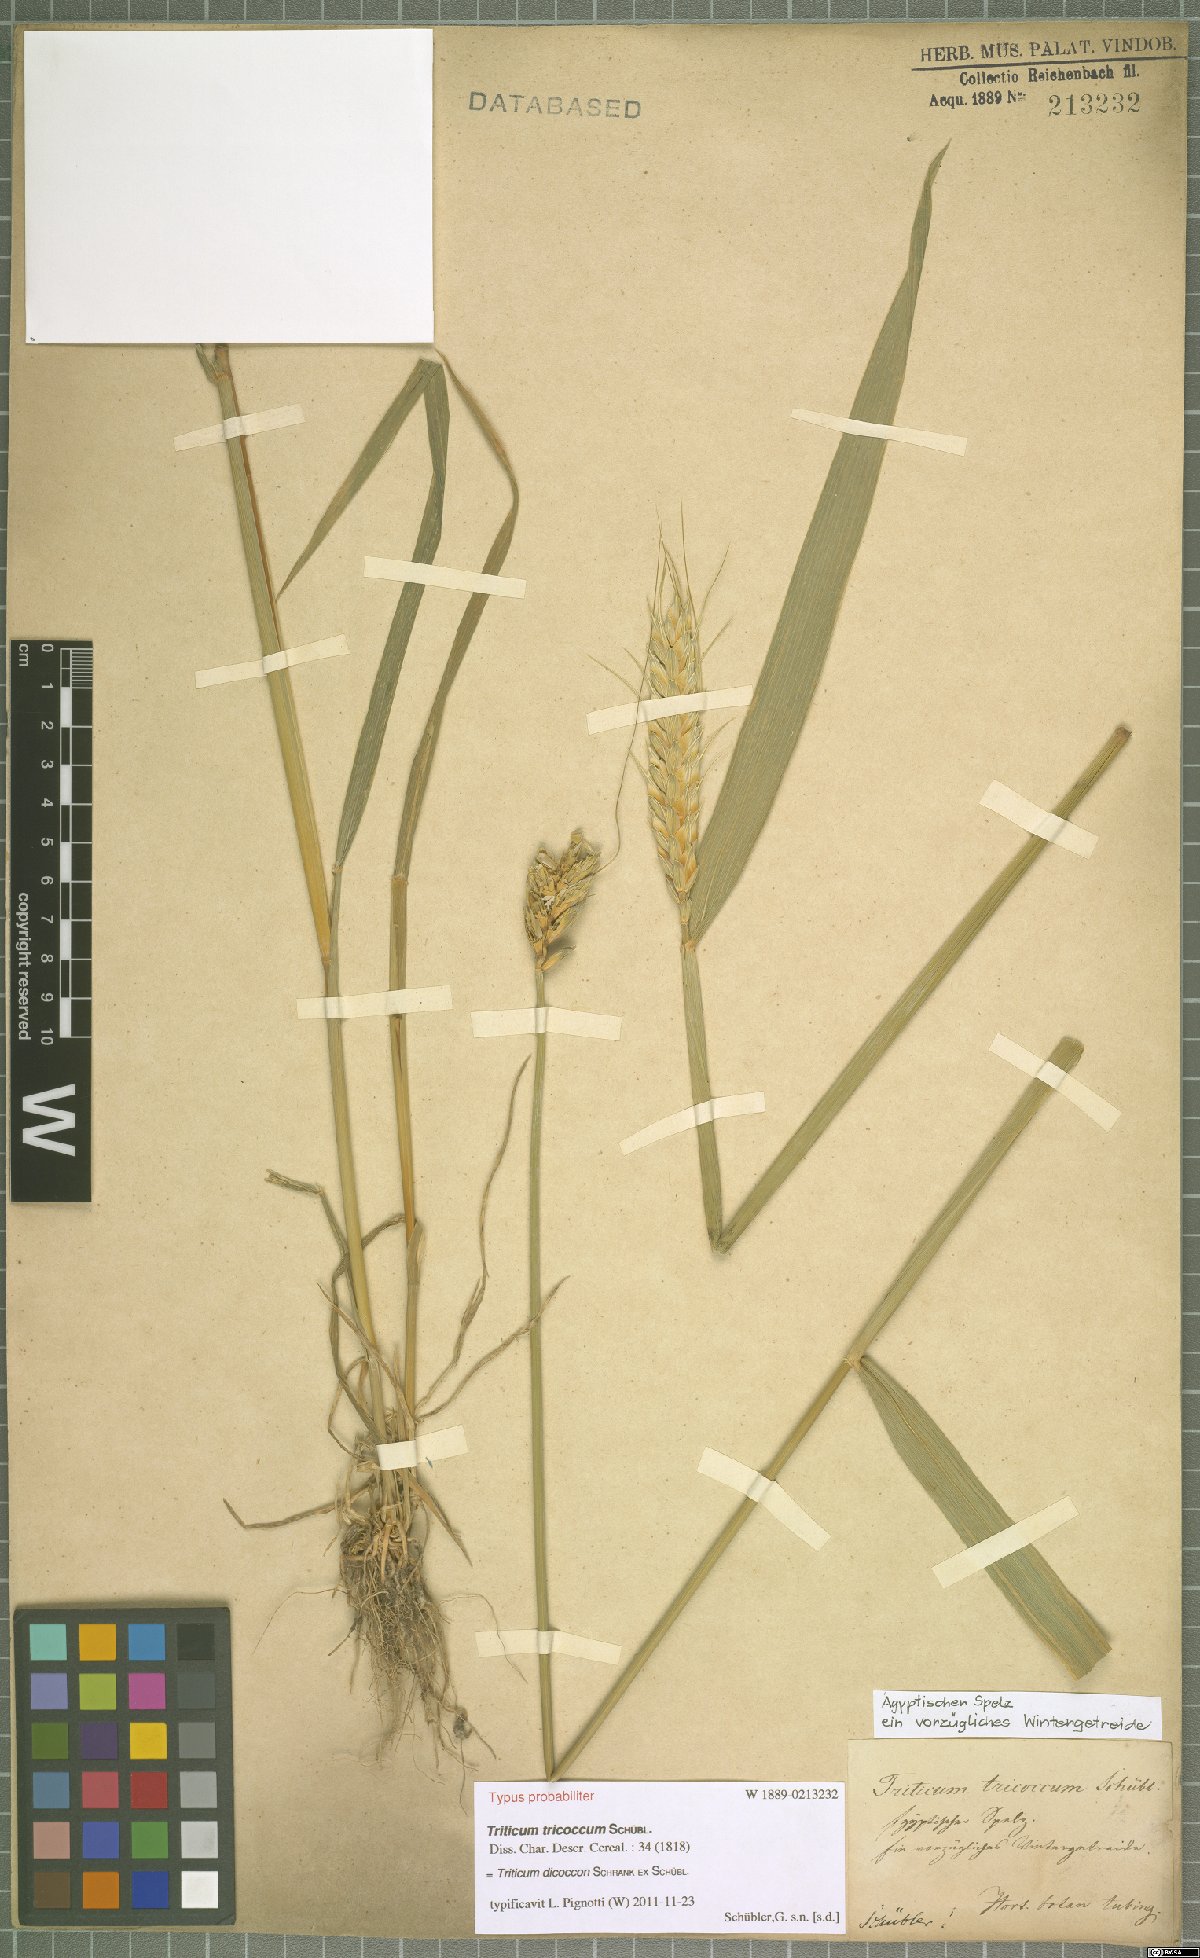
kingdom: Plantae
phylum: Tracheophyta
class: Liliopsida
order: Poales
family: Poaceae
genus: Triticum
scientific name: Triticum turgidum
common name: Rivet wheat
